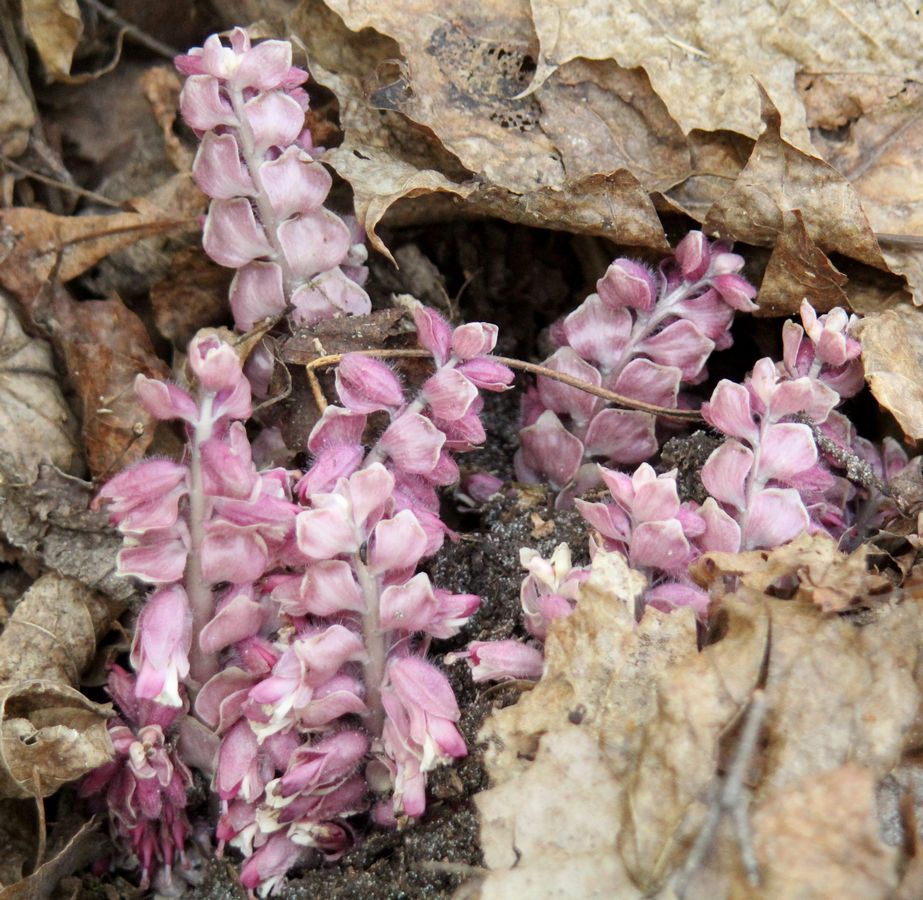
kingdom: Plantae
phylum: Tracheophyta
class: Magnoliopsida
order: Lamiales
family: Orobanchaceae
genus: Lathraea
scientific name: Lathraea squamaria
